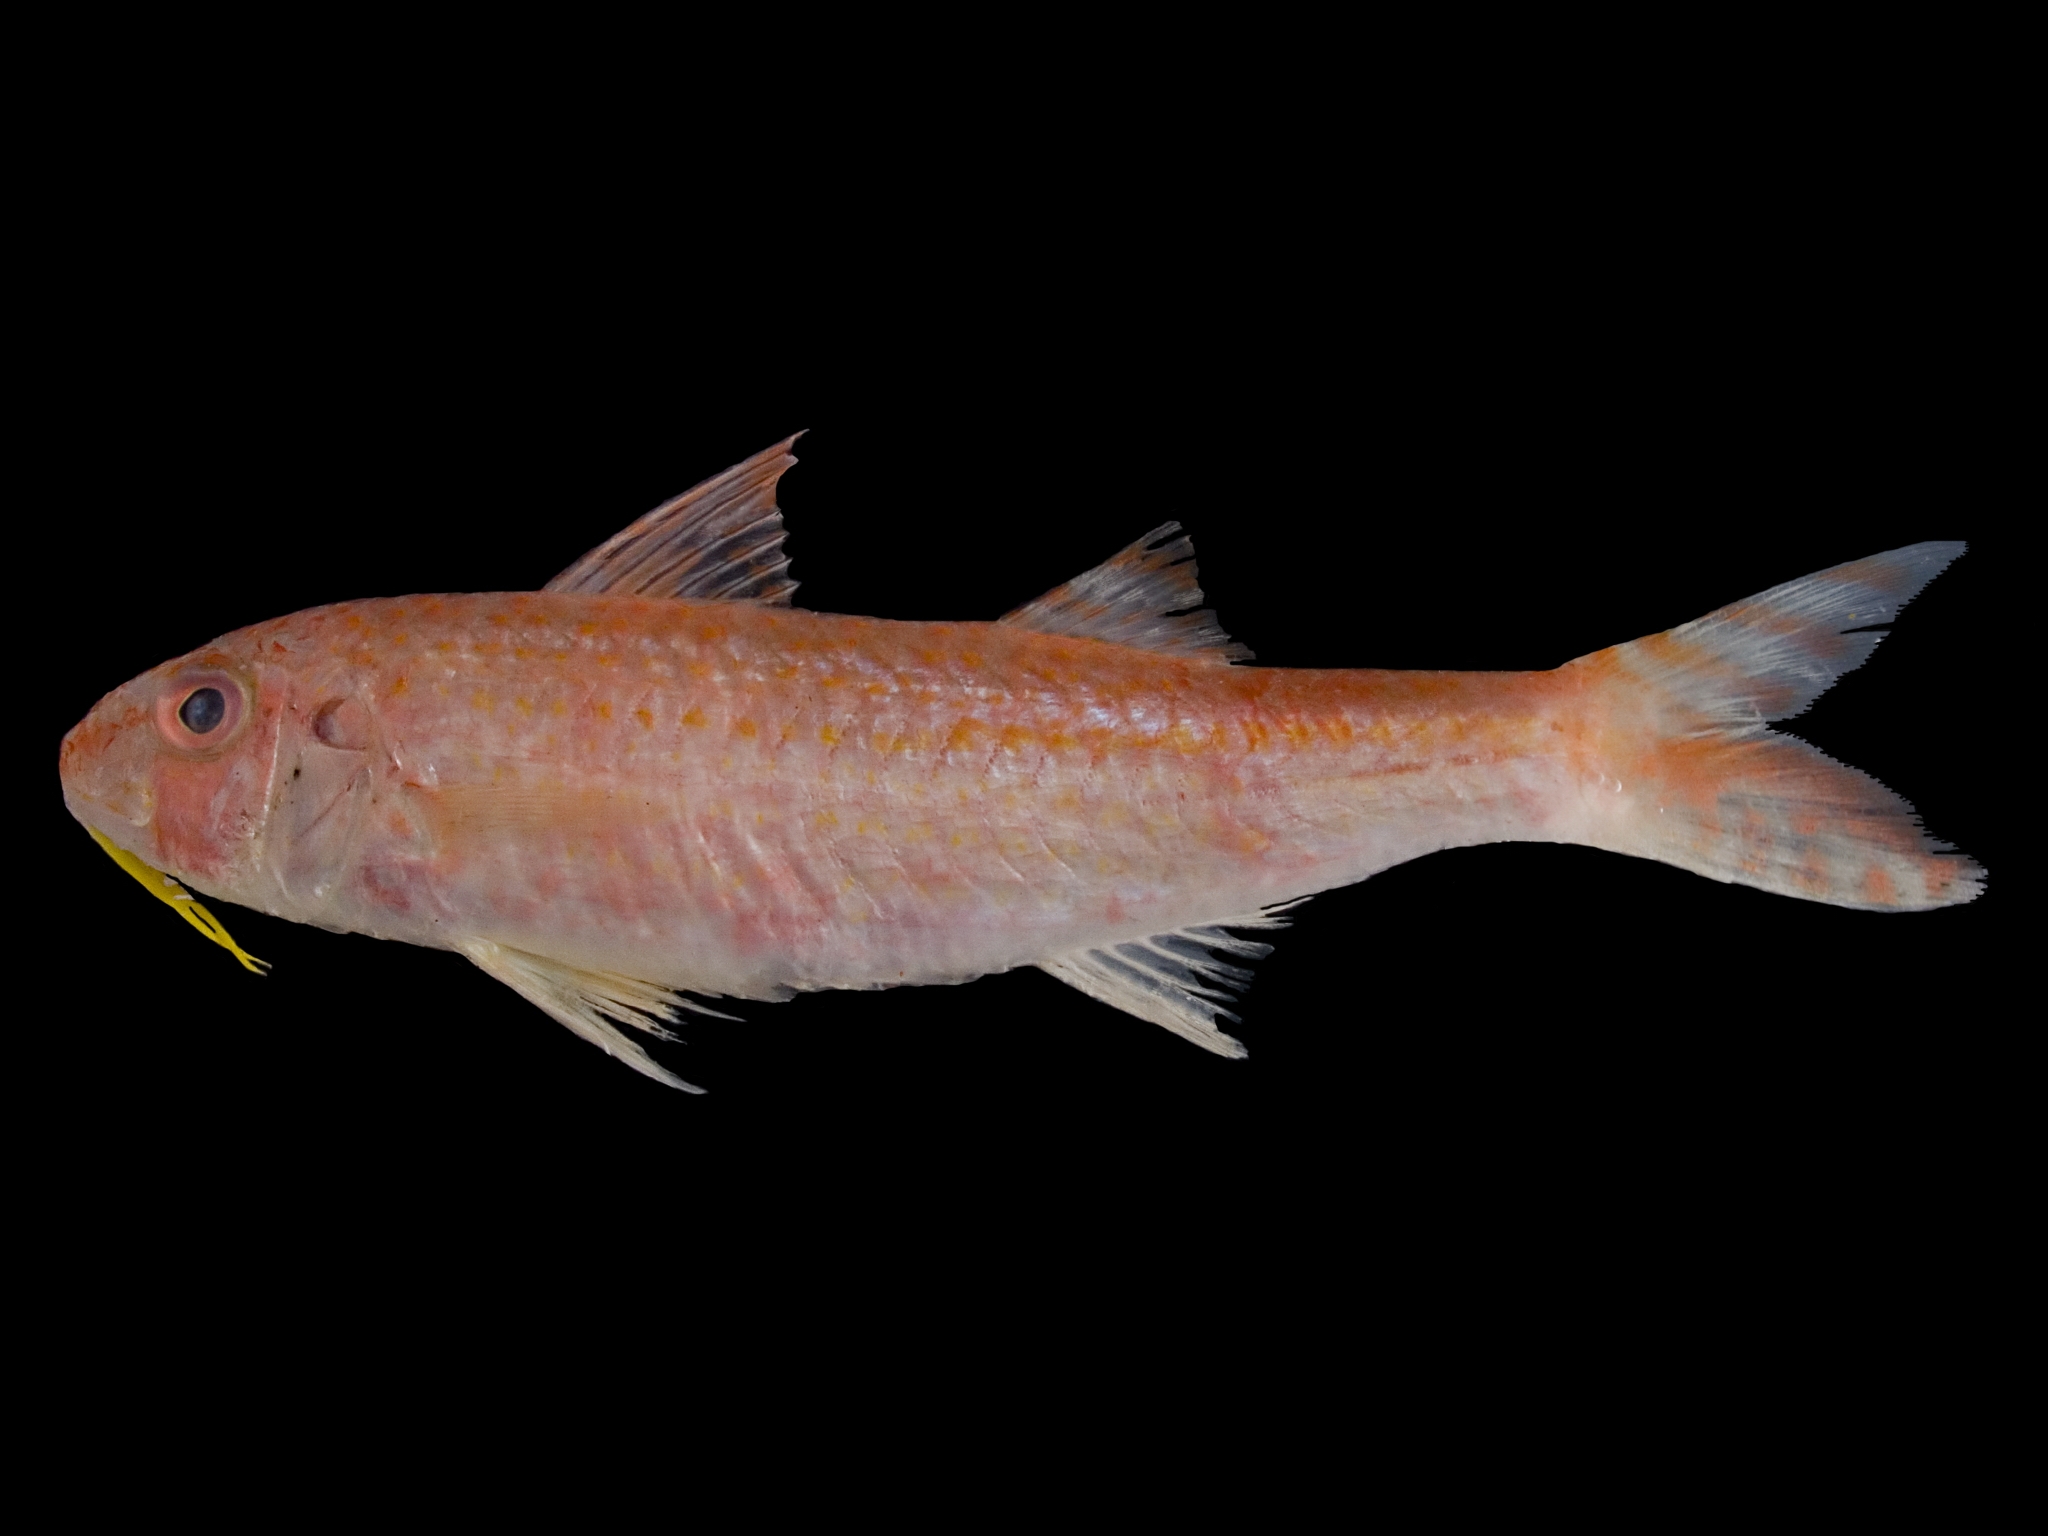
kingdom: Animalia
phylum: Chordata
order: Perciformes
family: Mullidae
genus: Upeneus
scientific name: Upeneus guttatus
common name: Spotted goatfish
